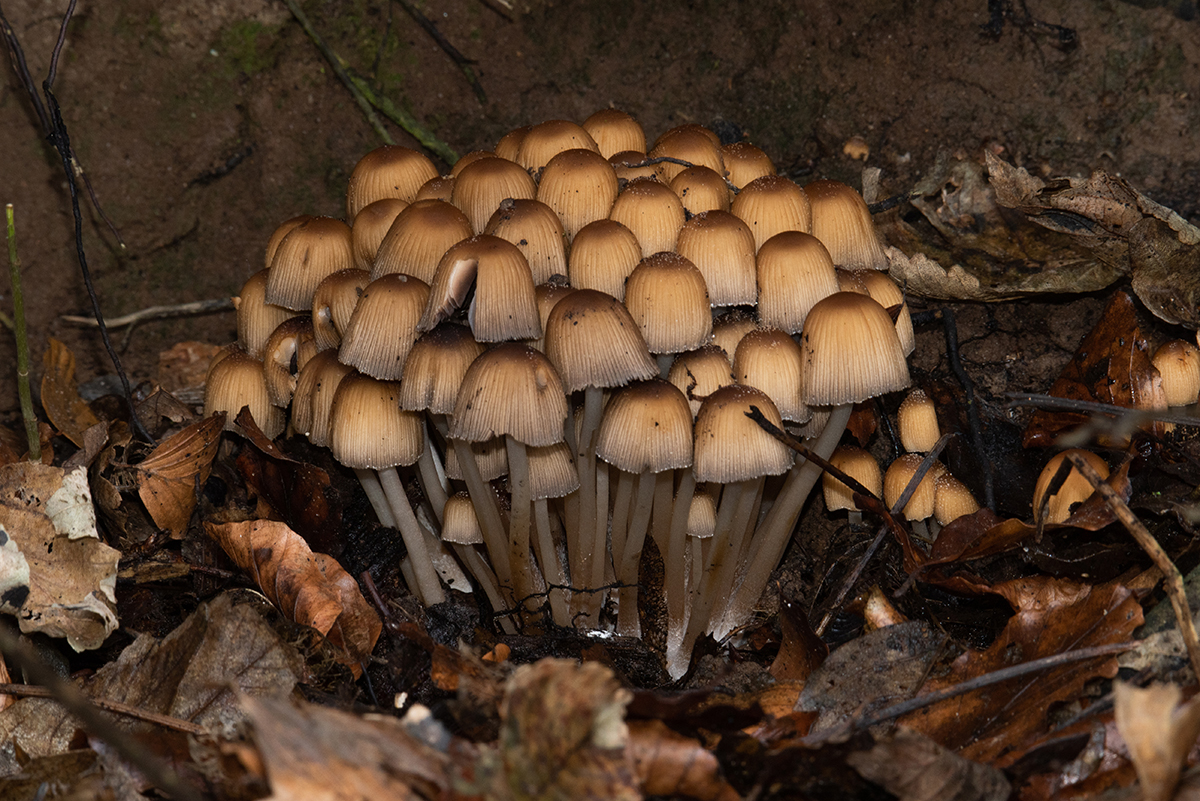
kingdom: Fungi
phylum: Basidiomycota
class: Agaricomycetes
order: Agaricales
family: Psathyrellaceae
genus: Coprinellus
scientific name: Coprinellus
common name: blækhat
